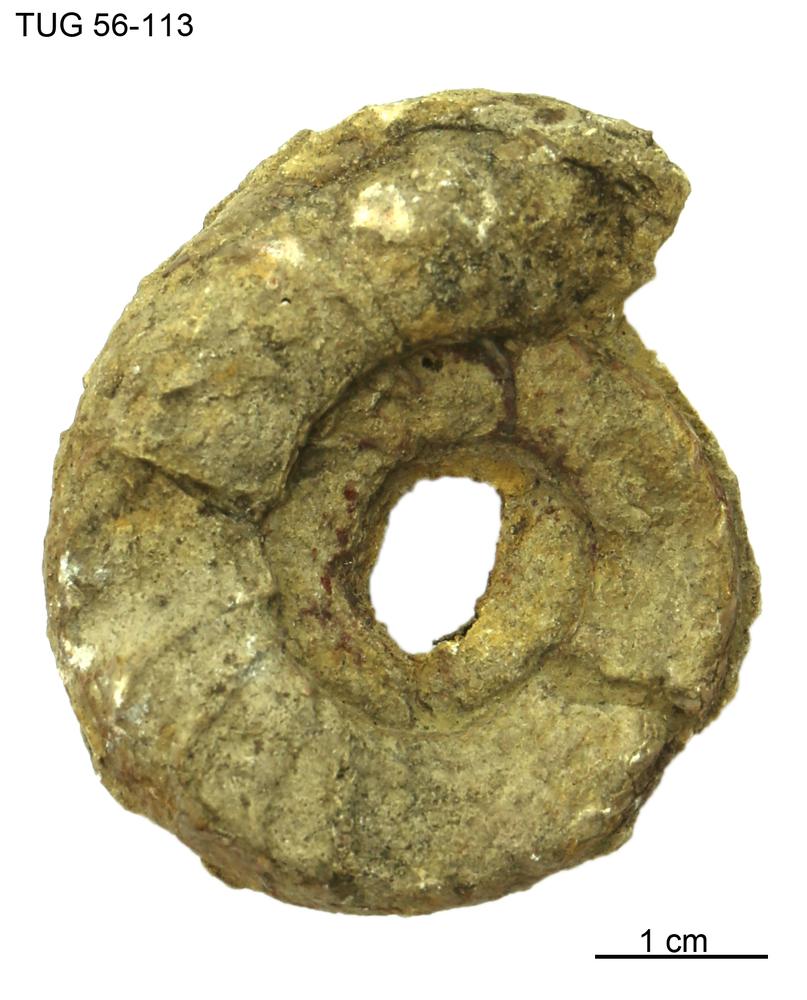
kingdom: Animalia
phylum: Mollusca
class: Cephalopoda
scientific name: Cephalopoda
